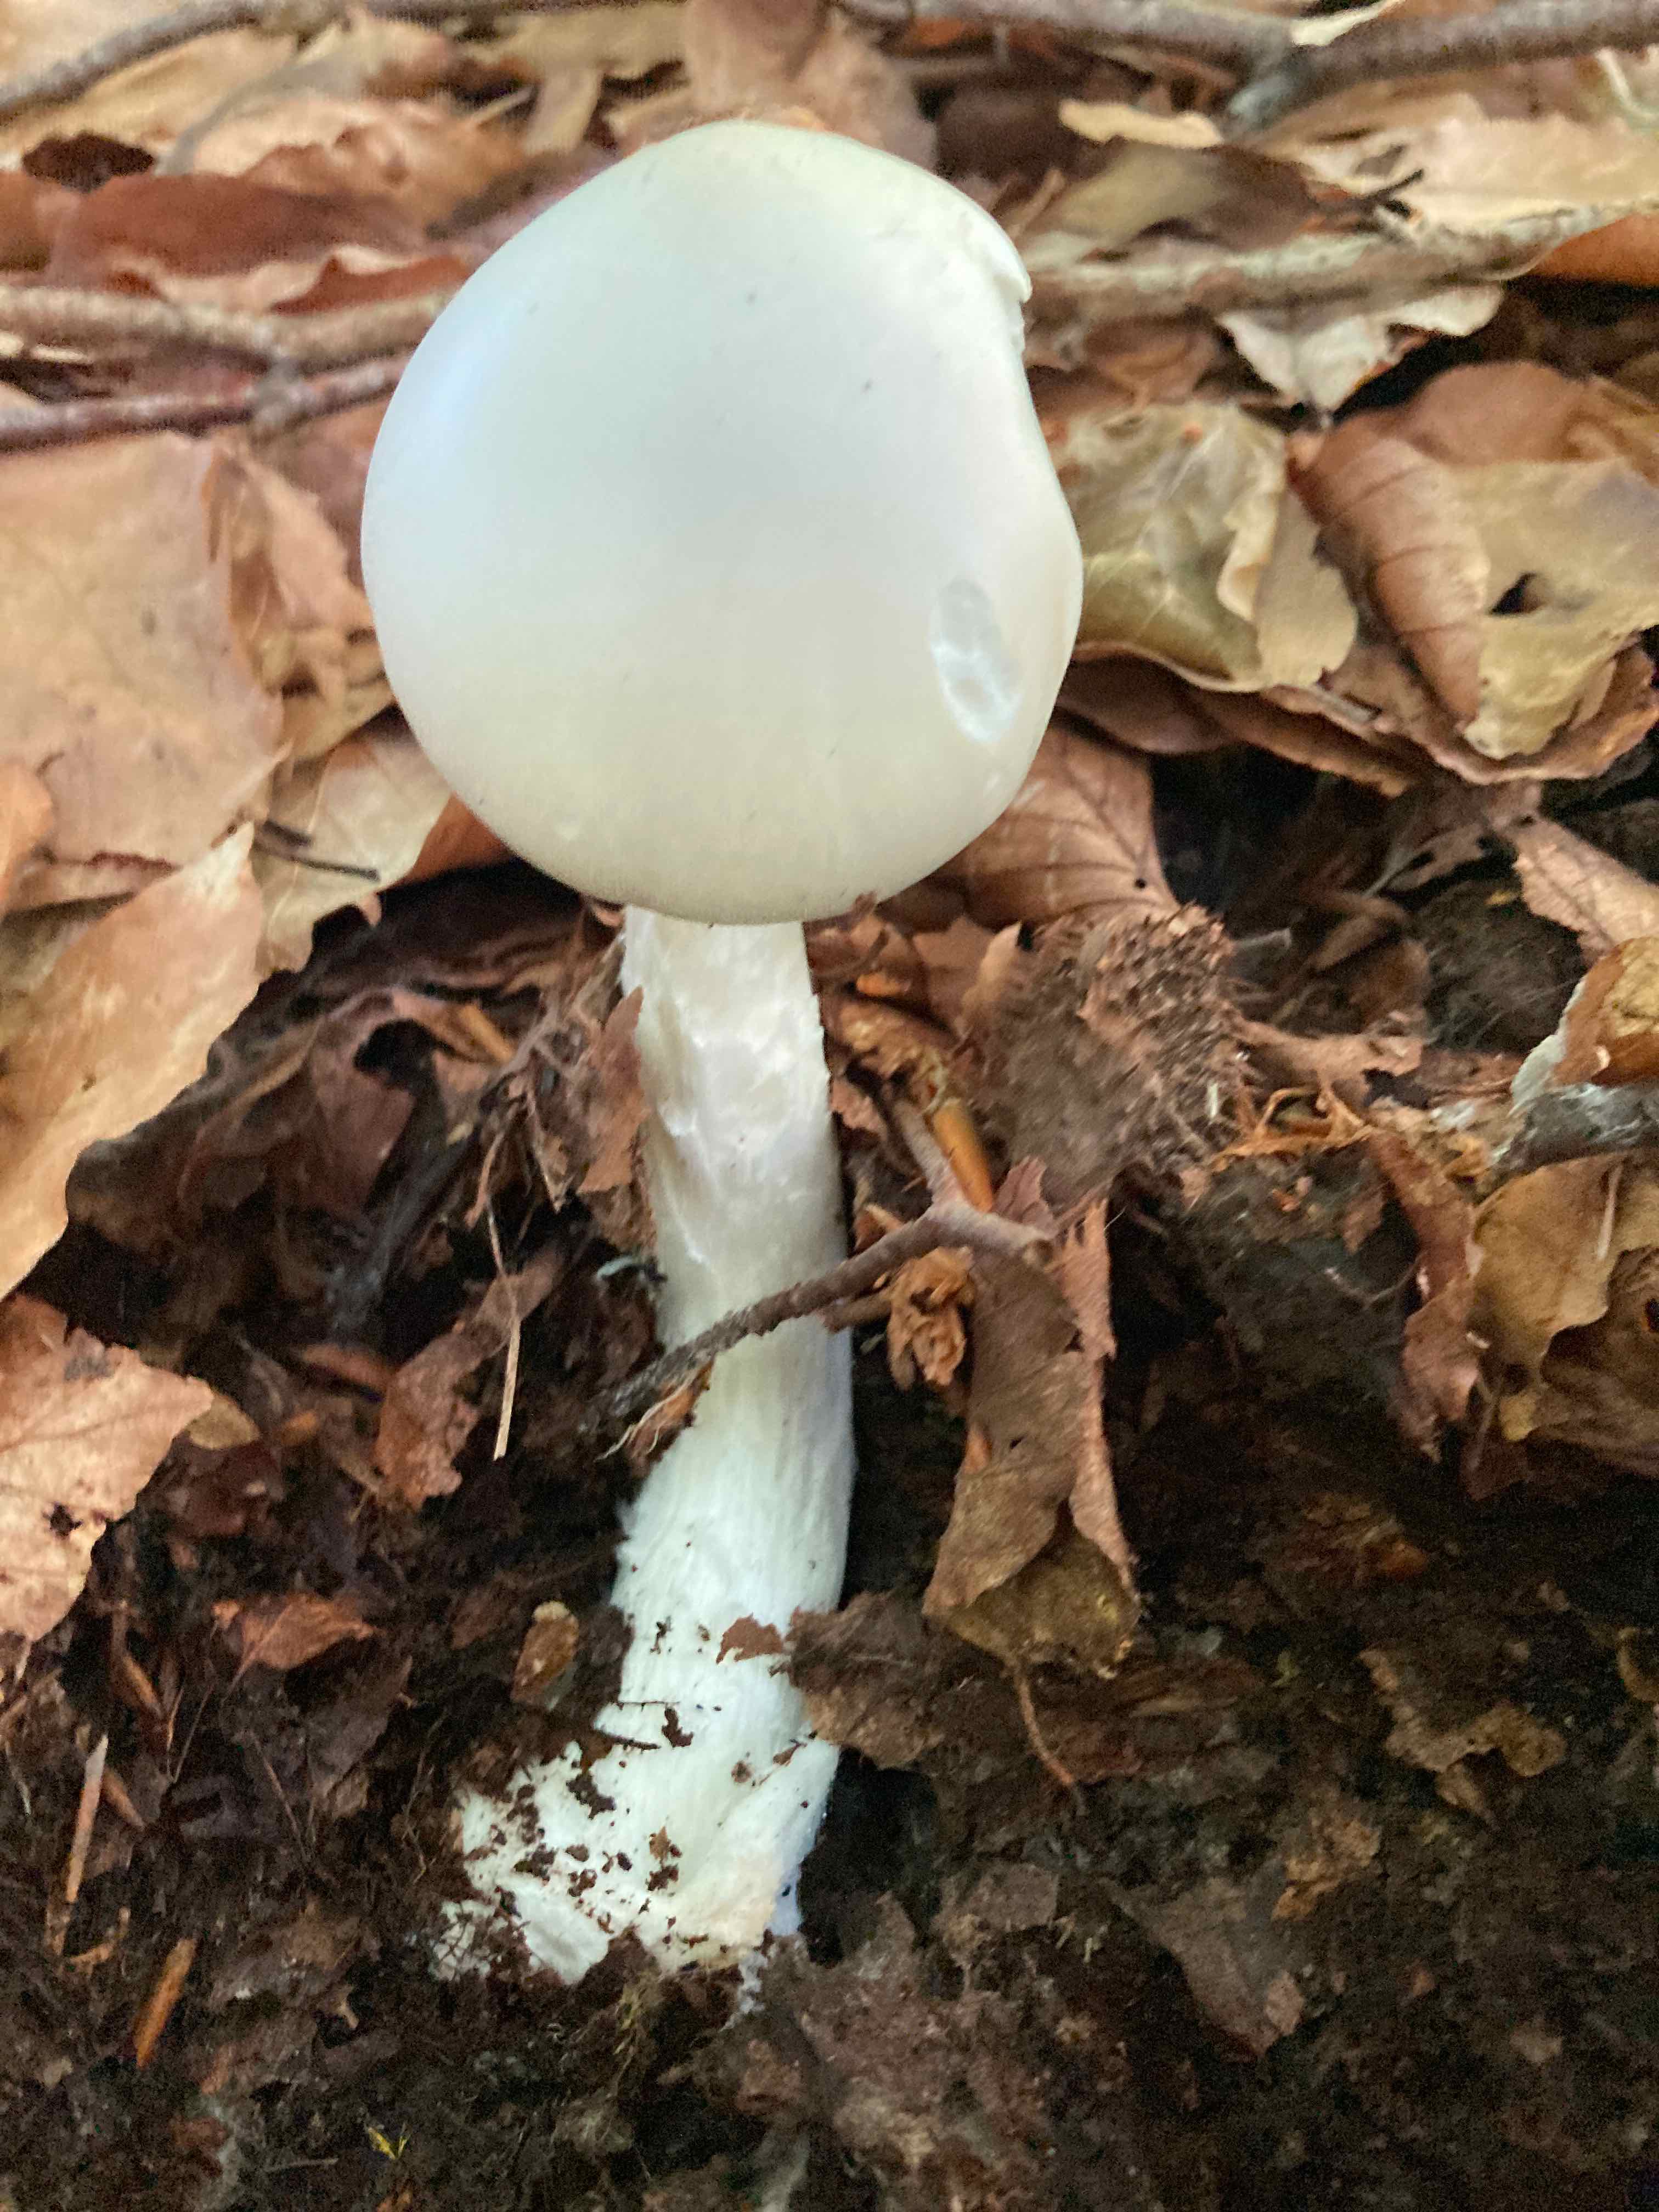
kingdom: Fungi
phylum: Basidiomycota
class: Agaricomycetes
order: Agaricales
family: Amanitaceae
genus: Amanita
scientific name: Amanita virosa
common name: snehvid fluesvamp
